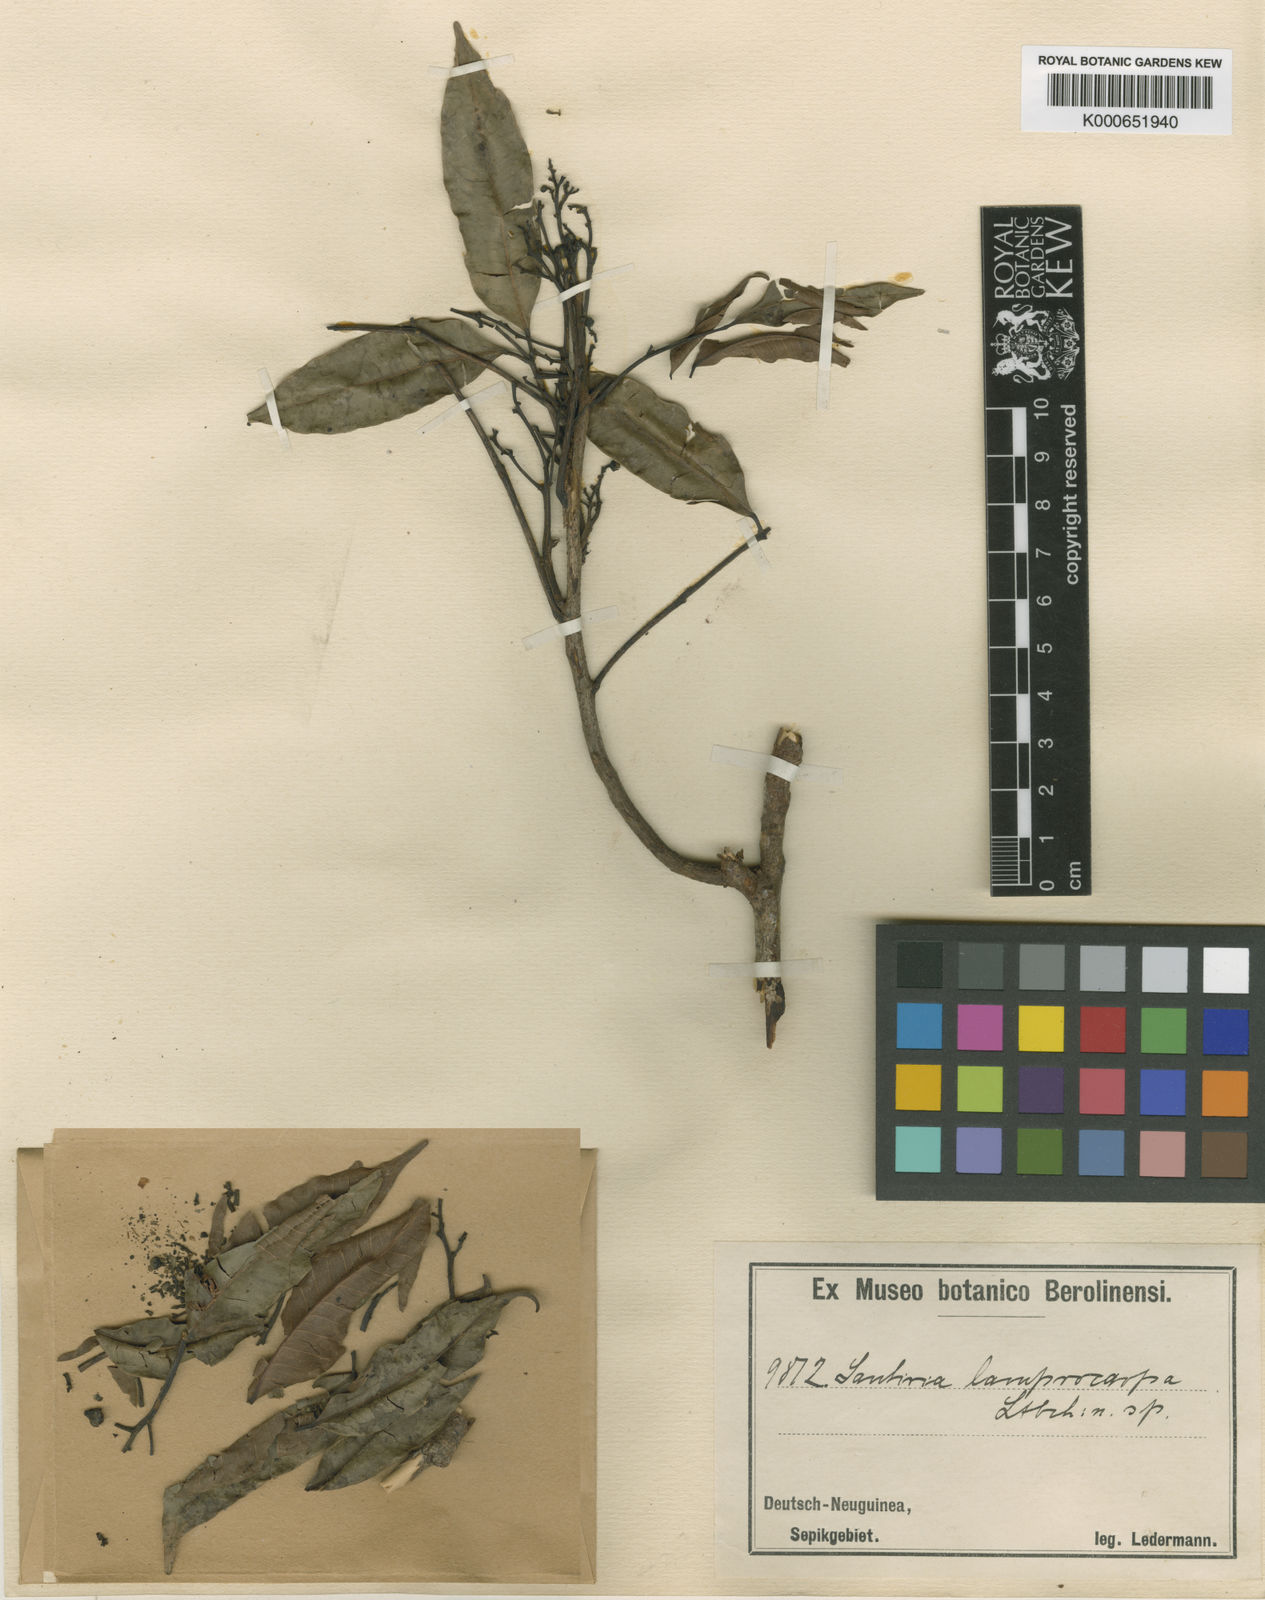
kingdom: Plantae
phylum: Tracheophyta
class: Magnoliopsida
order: Sapindales
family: Burseraceae
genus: Santiria
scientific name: Santiria rubiginosa
